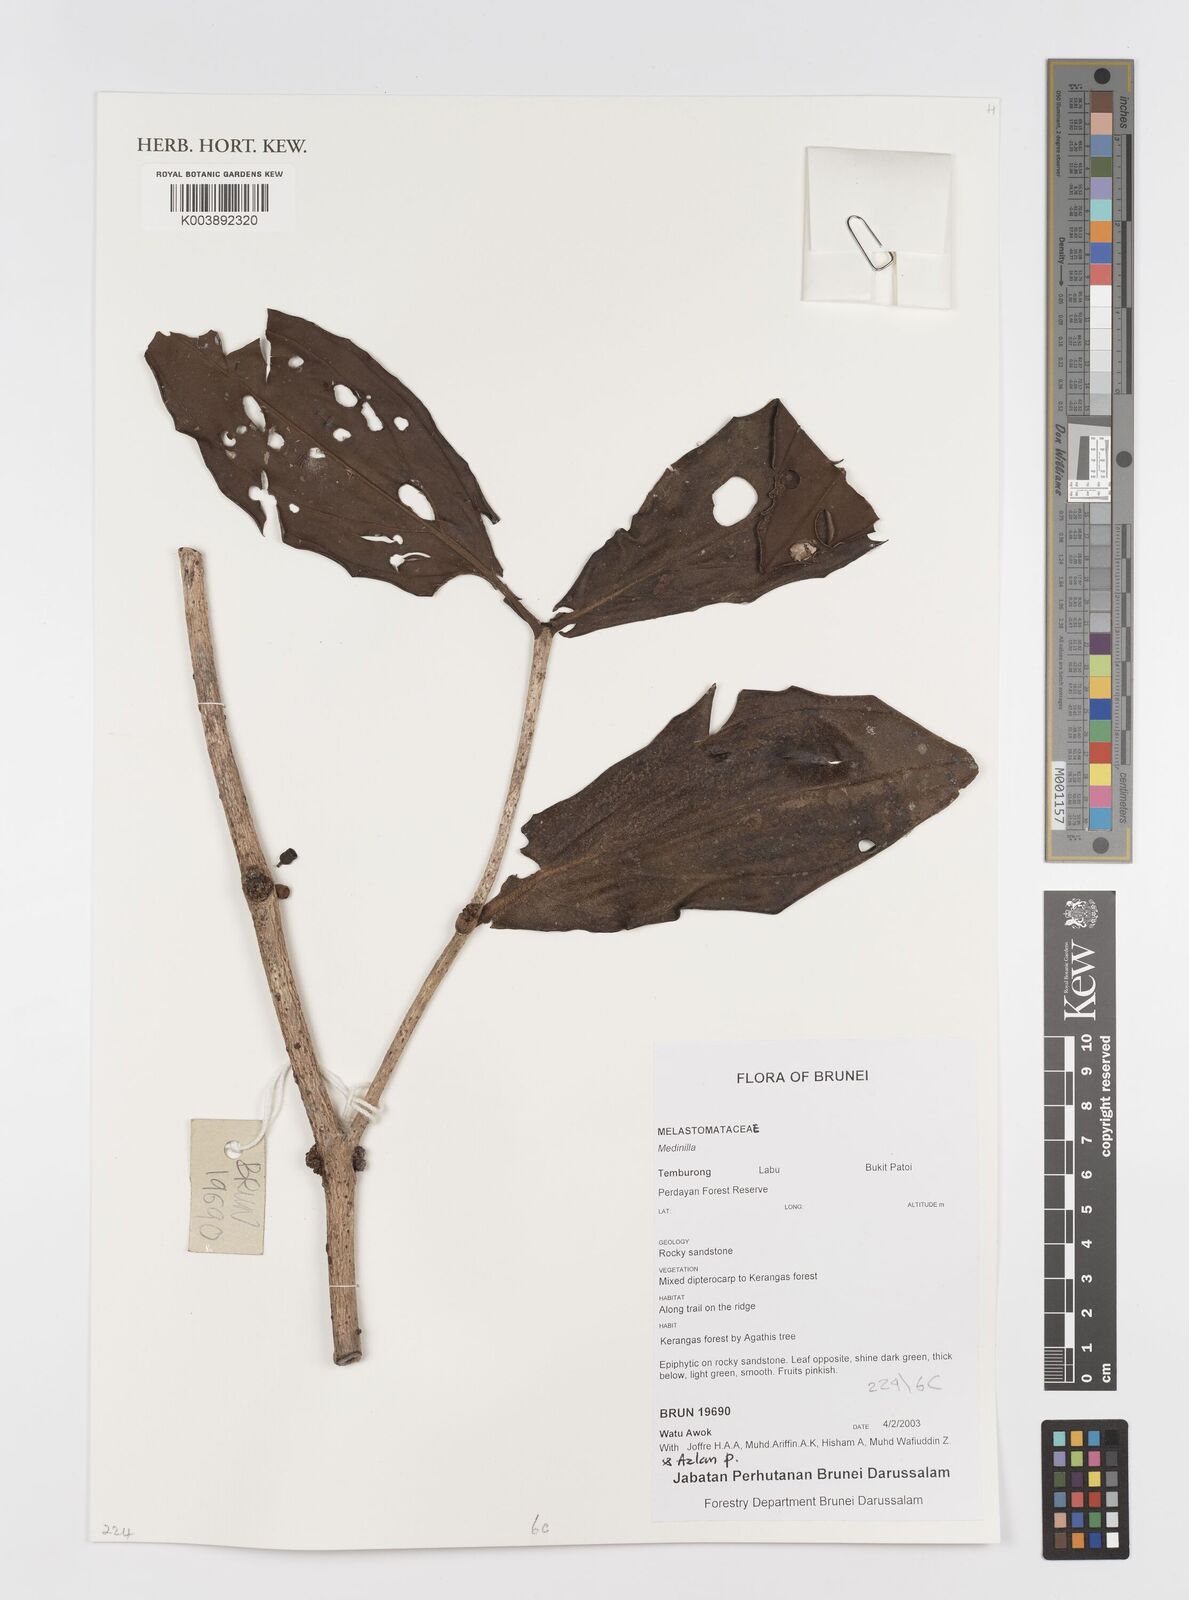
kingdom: Plantae
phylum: Tracheophyta
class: Magnoliopsida
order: Myrtales
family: Melastomataceae
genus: Medinilla
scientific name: Medinilla
